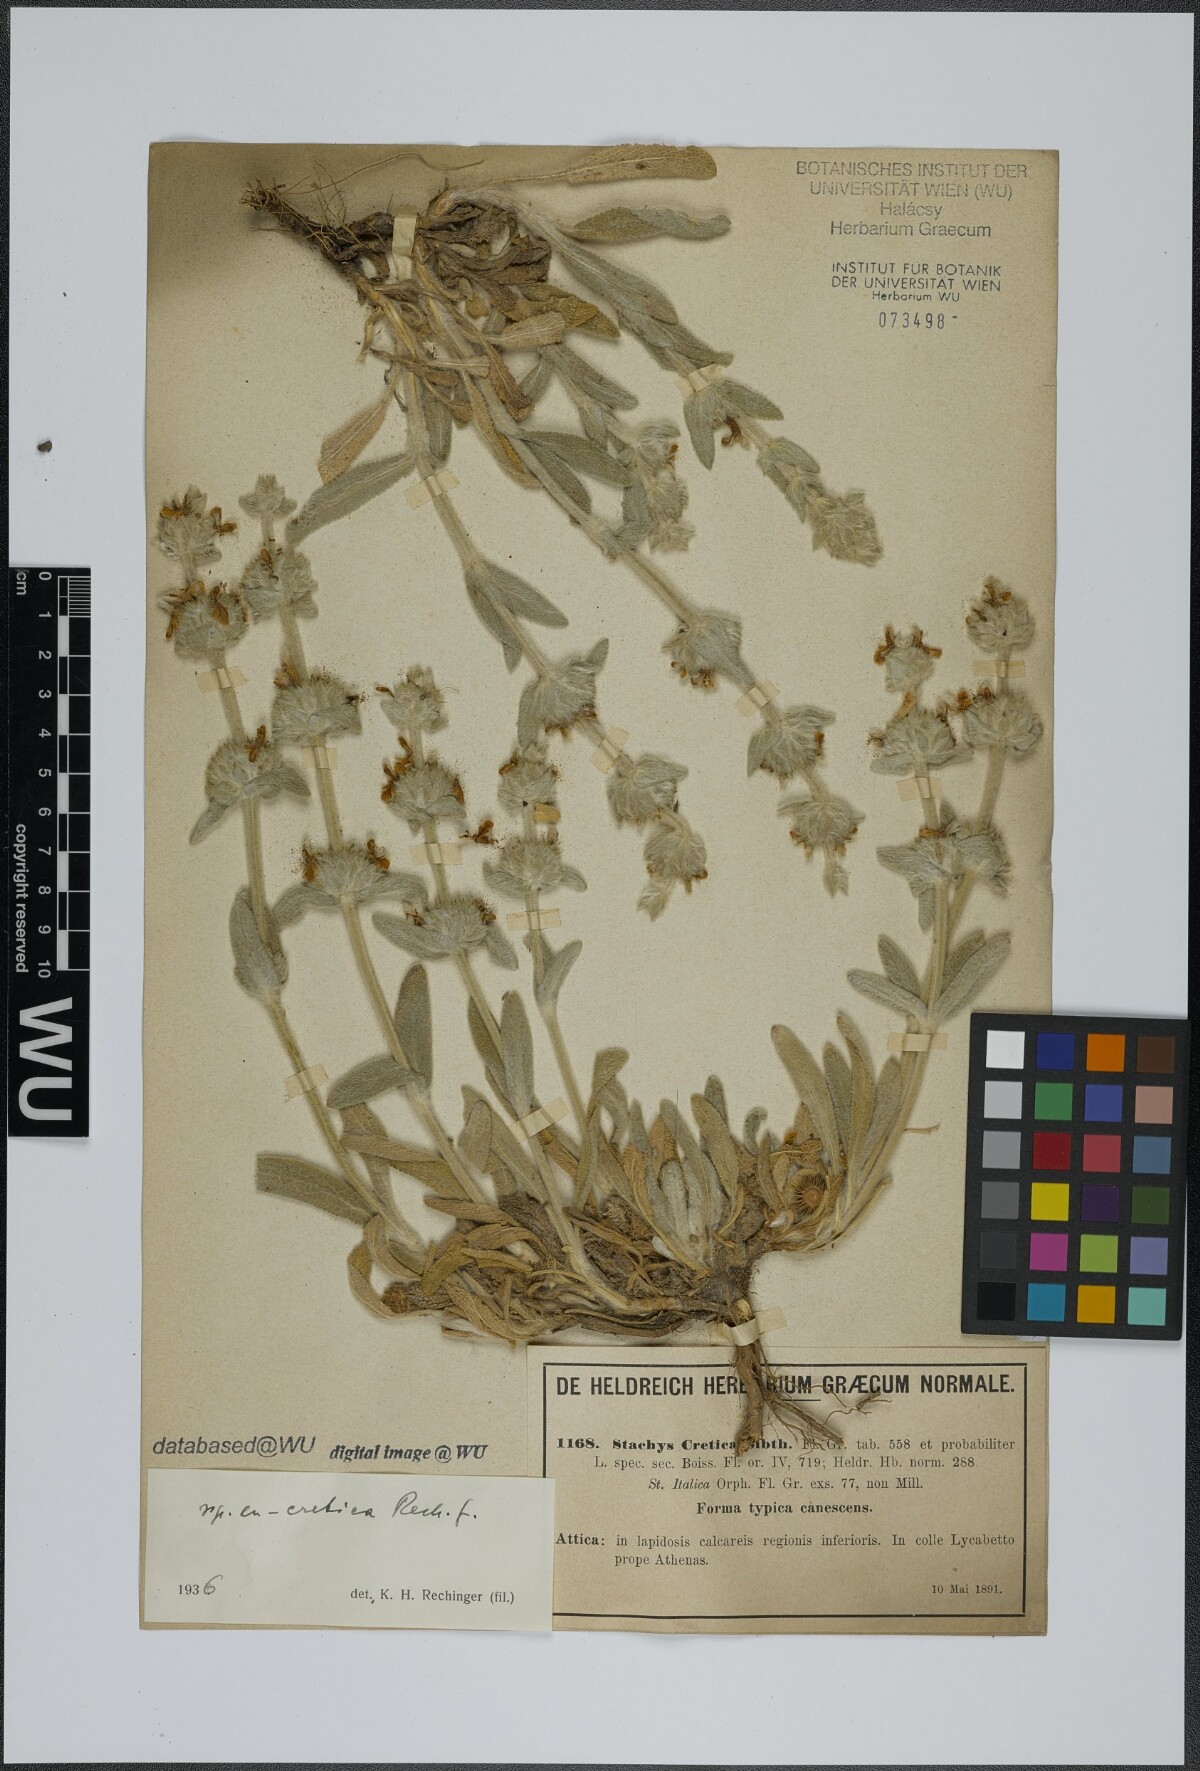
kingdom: Plantae
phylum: Tracheophyta
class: Magnoliopsida
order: Lamiales
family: Lamiaceae
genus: Stachys
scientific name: Stachys cretica
